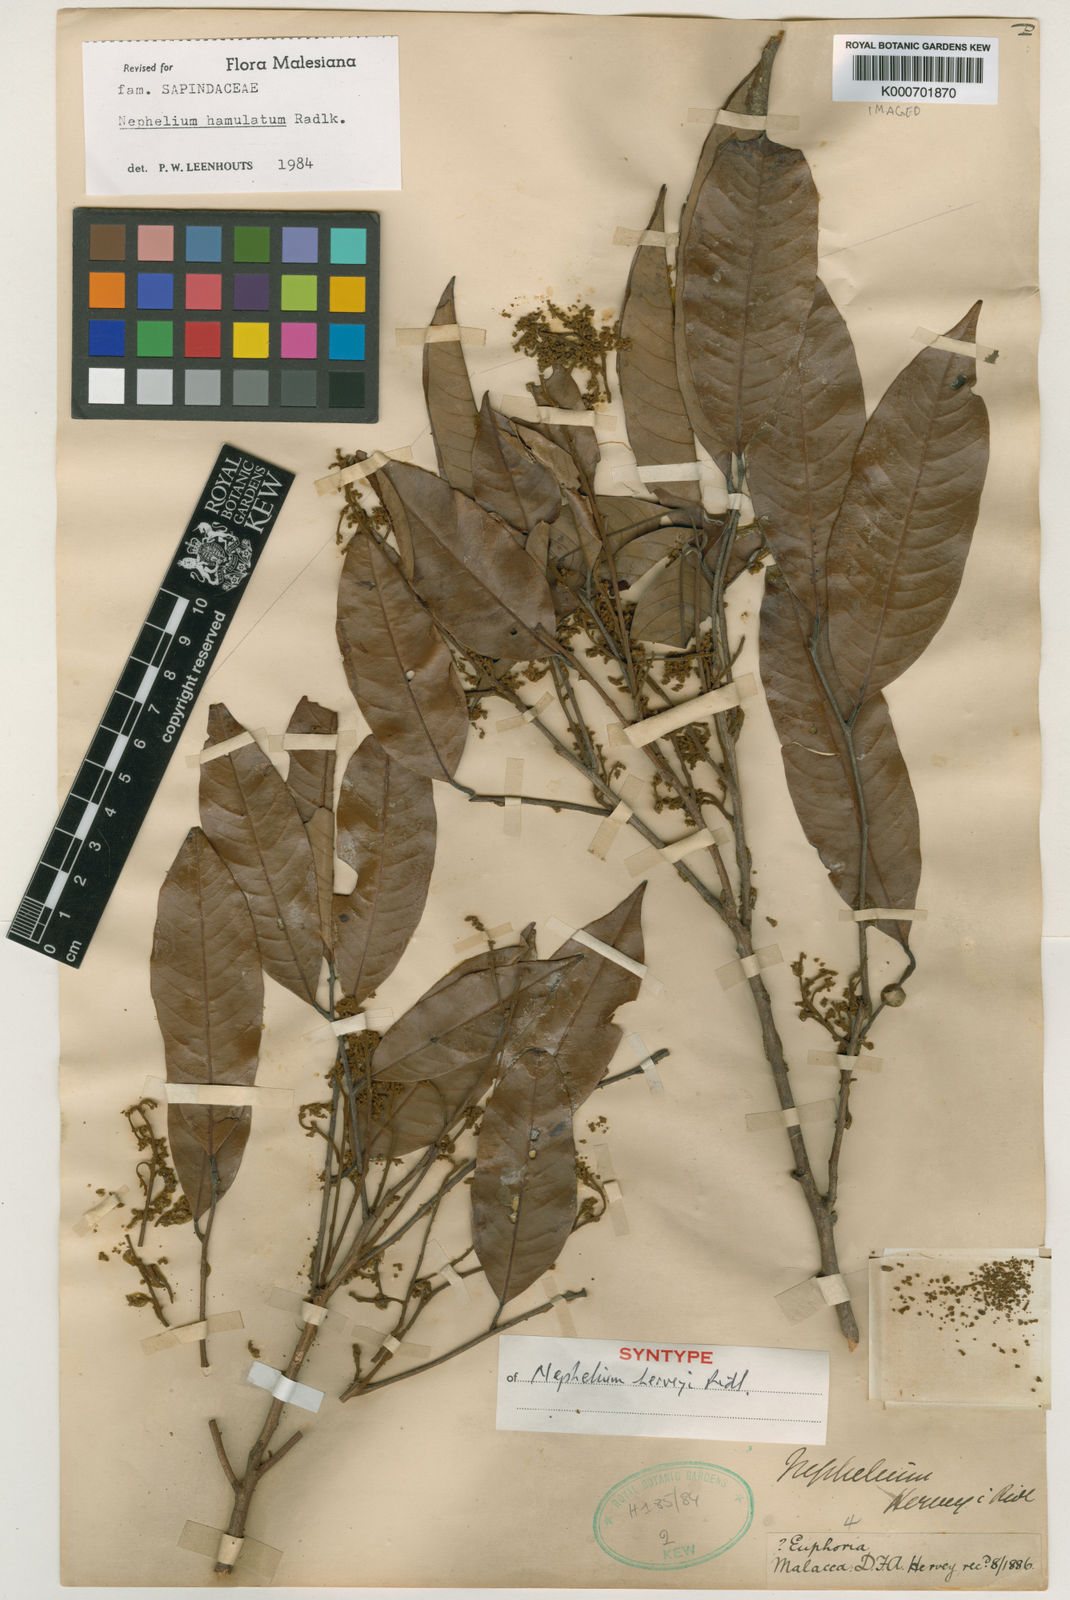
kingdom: Plantae
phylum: Tracheophyta
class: Magnoliopsida
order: Sapindales
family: Sapindaceae
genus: Nephelium
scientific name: Nephelium hamulatum
